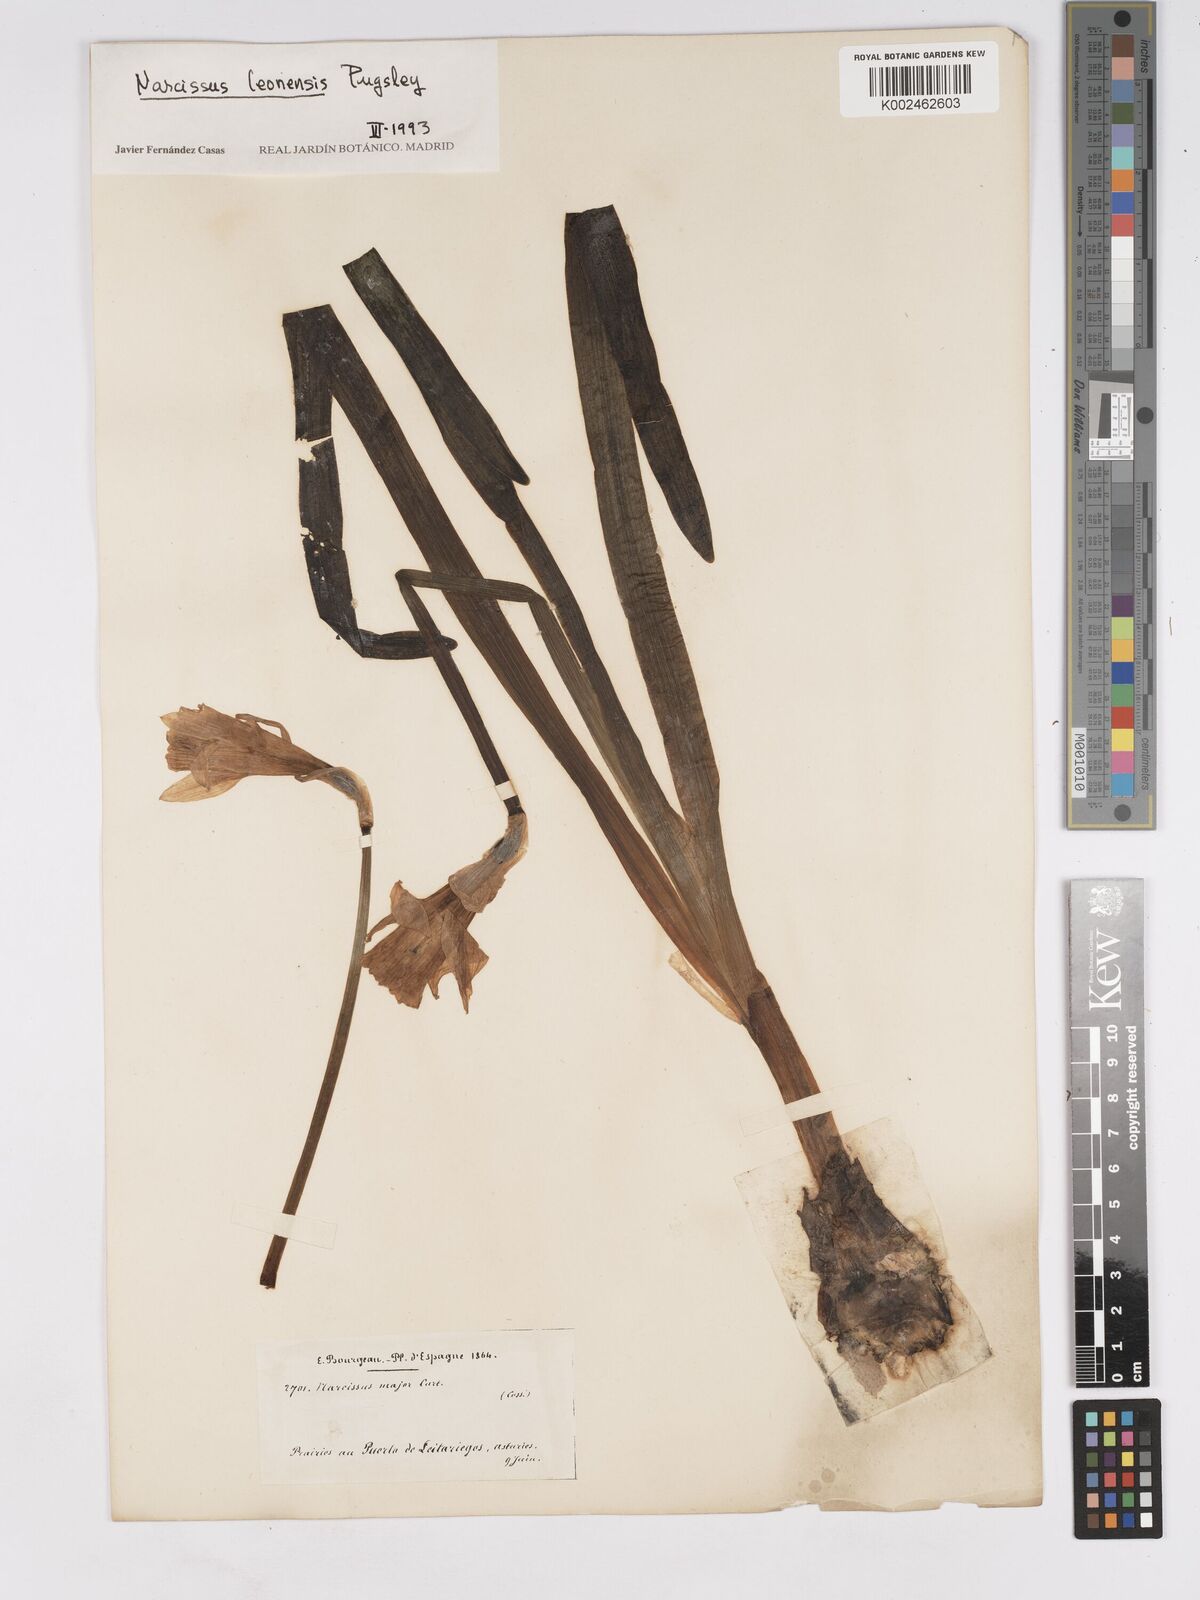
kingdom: Plantae
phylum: Tracheophyta
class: Liliopsida
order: Asparagales
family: Amaryllidaceae
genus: Narcissus
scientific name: Narcissus leonensis
